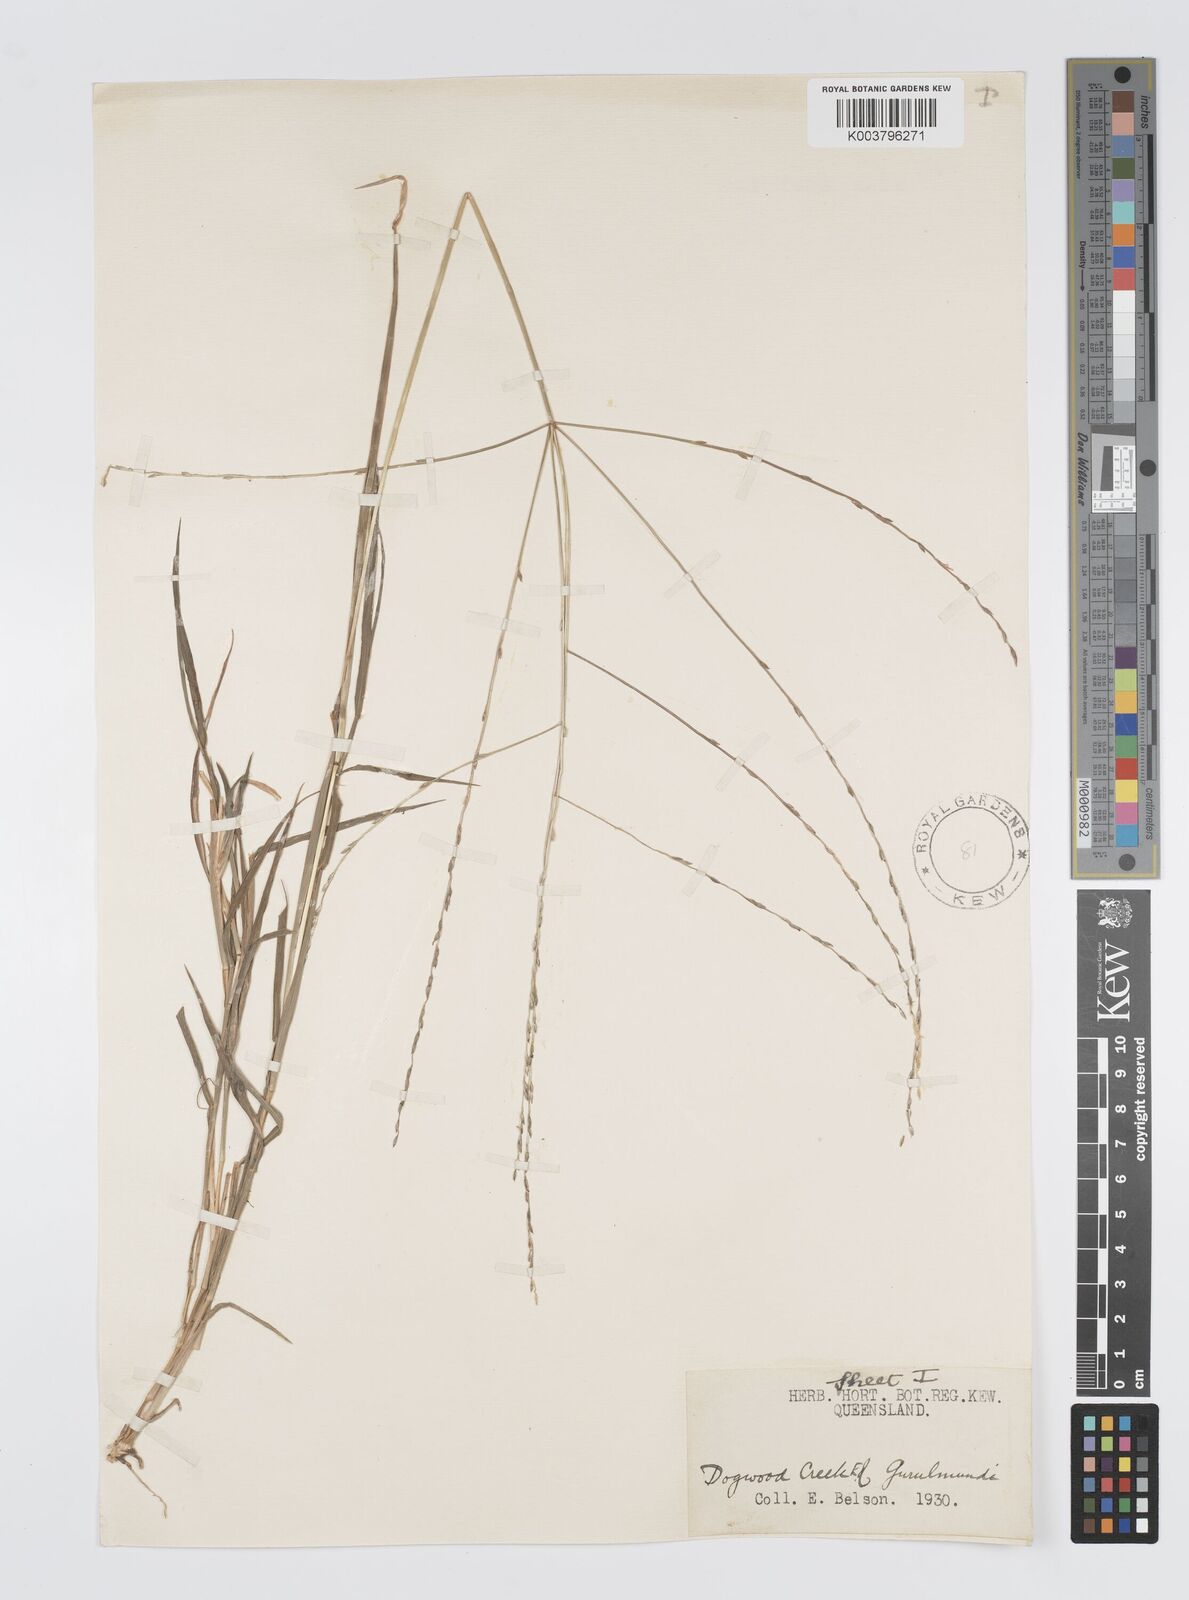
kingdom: Plantae
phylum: Tracheophyta
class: Liliopsida
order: Poales
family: Poaceae
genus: Digitaria
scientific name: Digitaria divaricatissima
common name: Crabgrass
